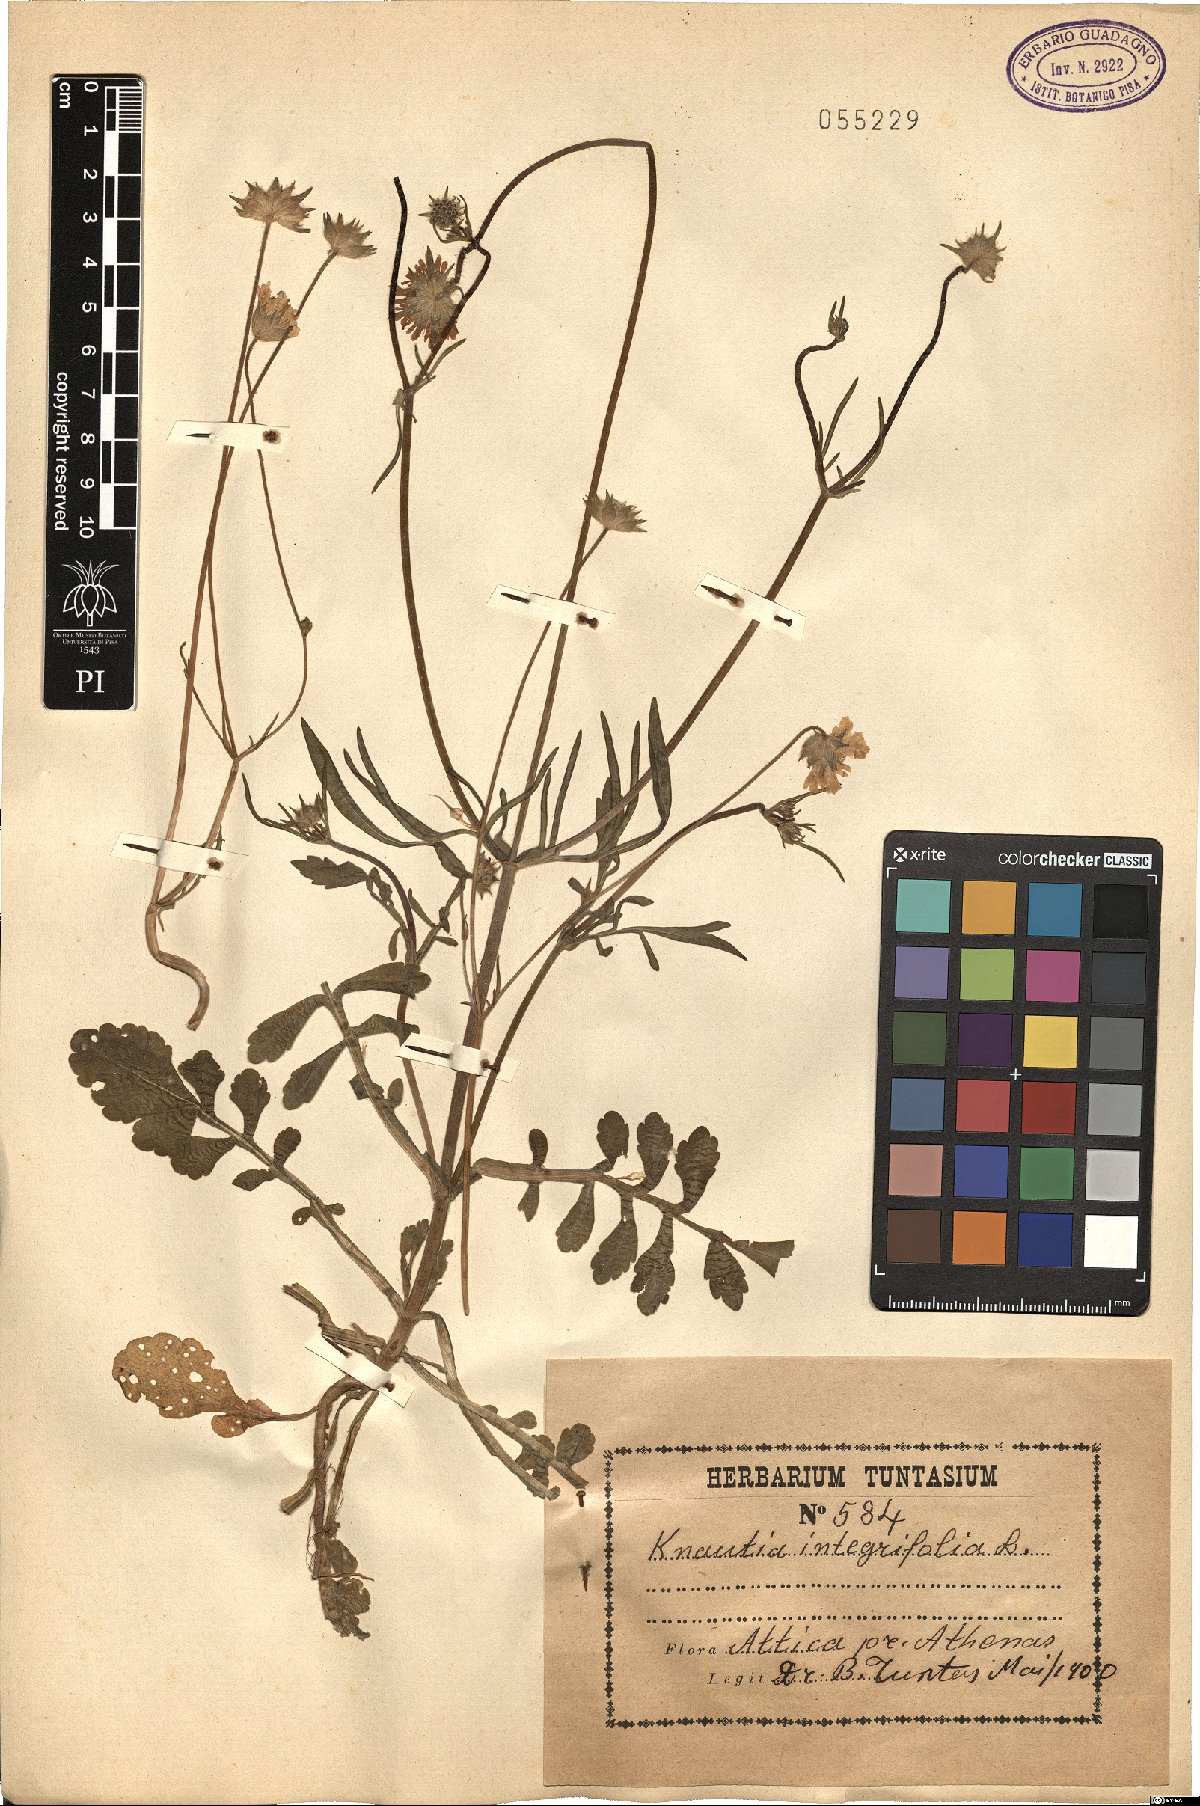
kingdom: Plantae
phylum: Tracheophyta
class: Magnoliopsida
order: Dipsacales
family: Caprifoliaceae
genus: Knautia
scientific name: Knautia integrifolia
